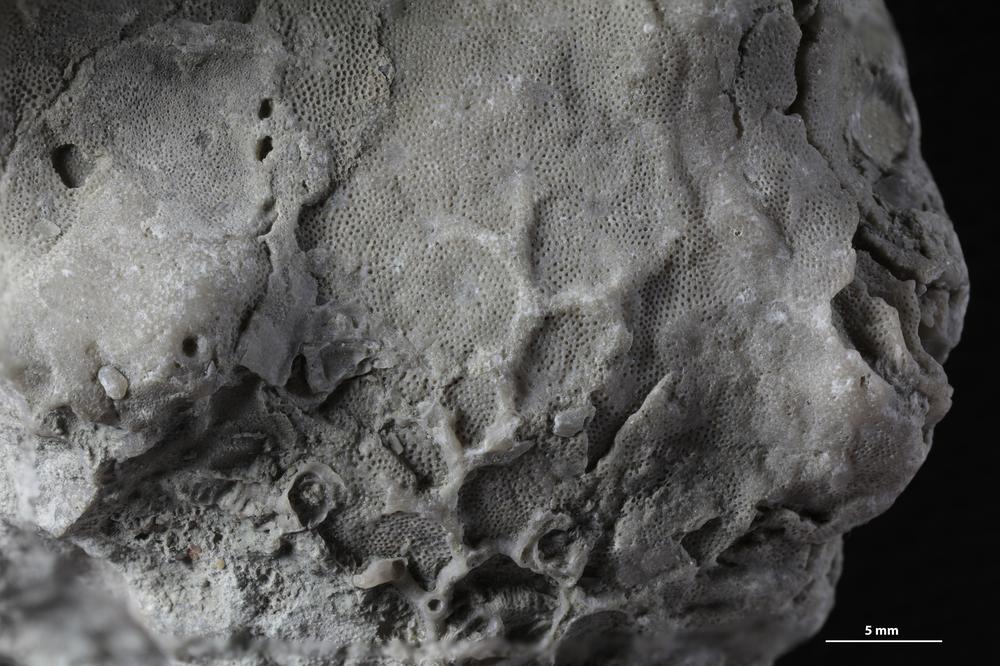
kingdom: Animalia
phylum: Cnidaria
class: Anthozoa
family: Auloporidae
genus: Aulopora
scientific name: Aulopora amica
